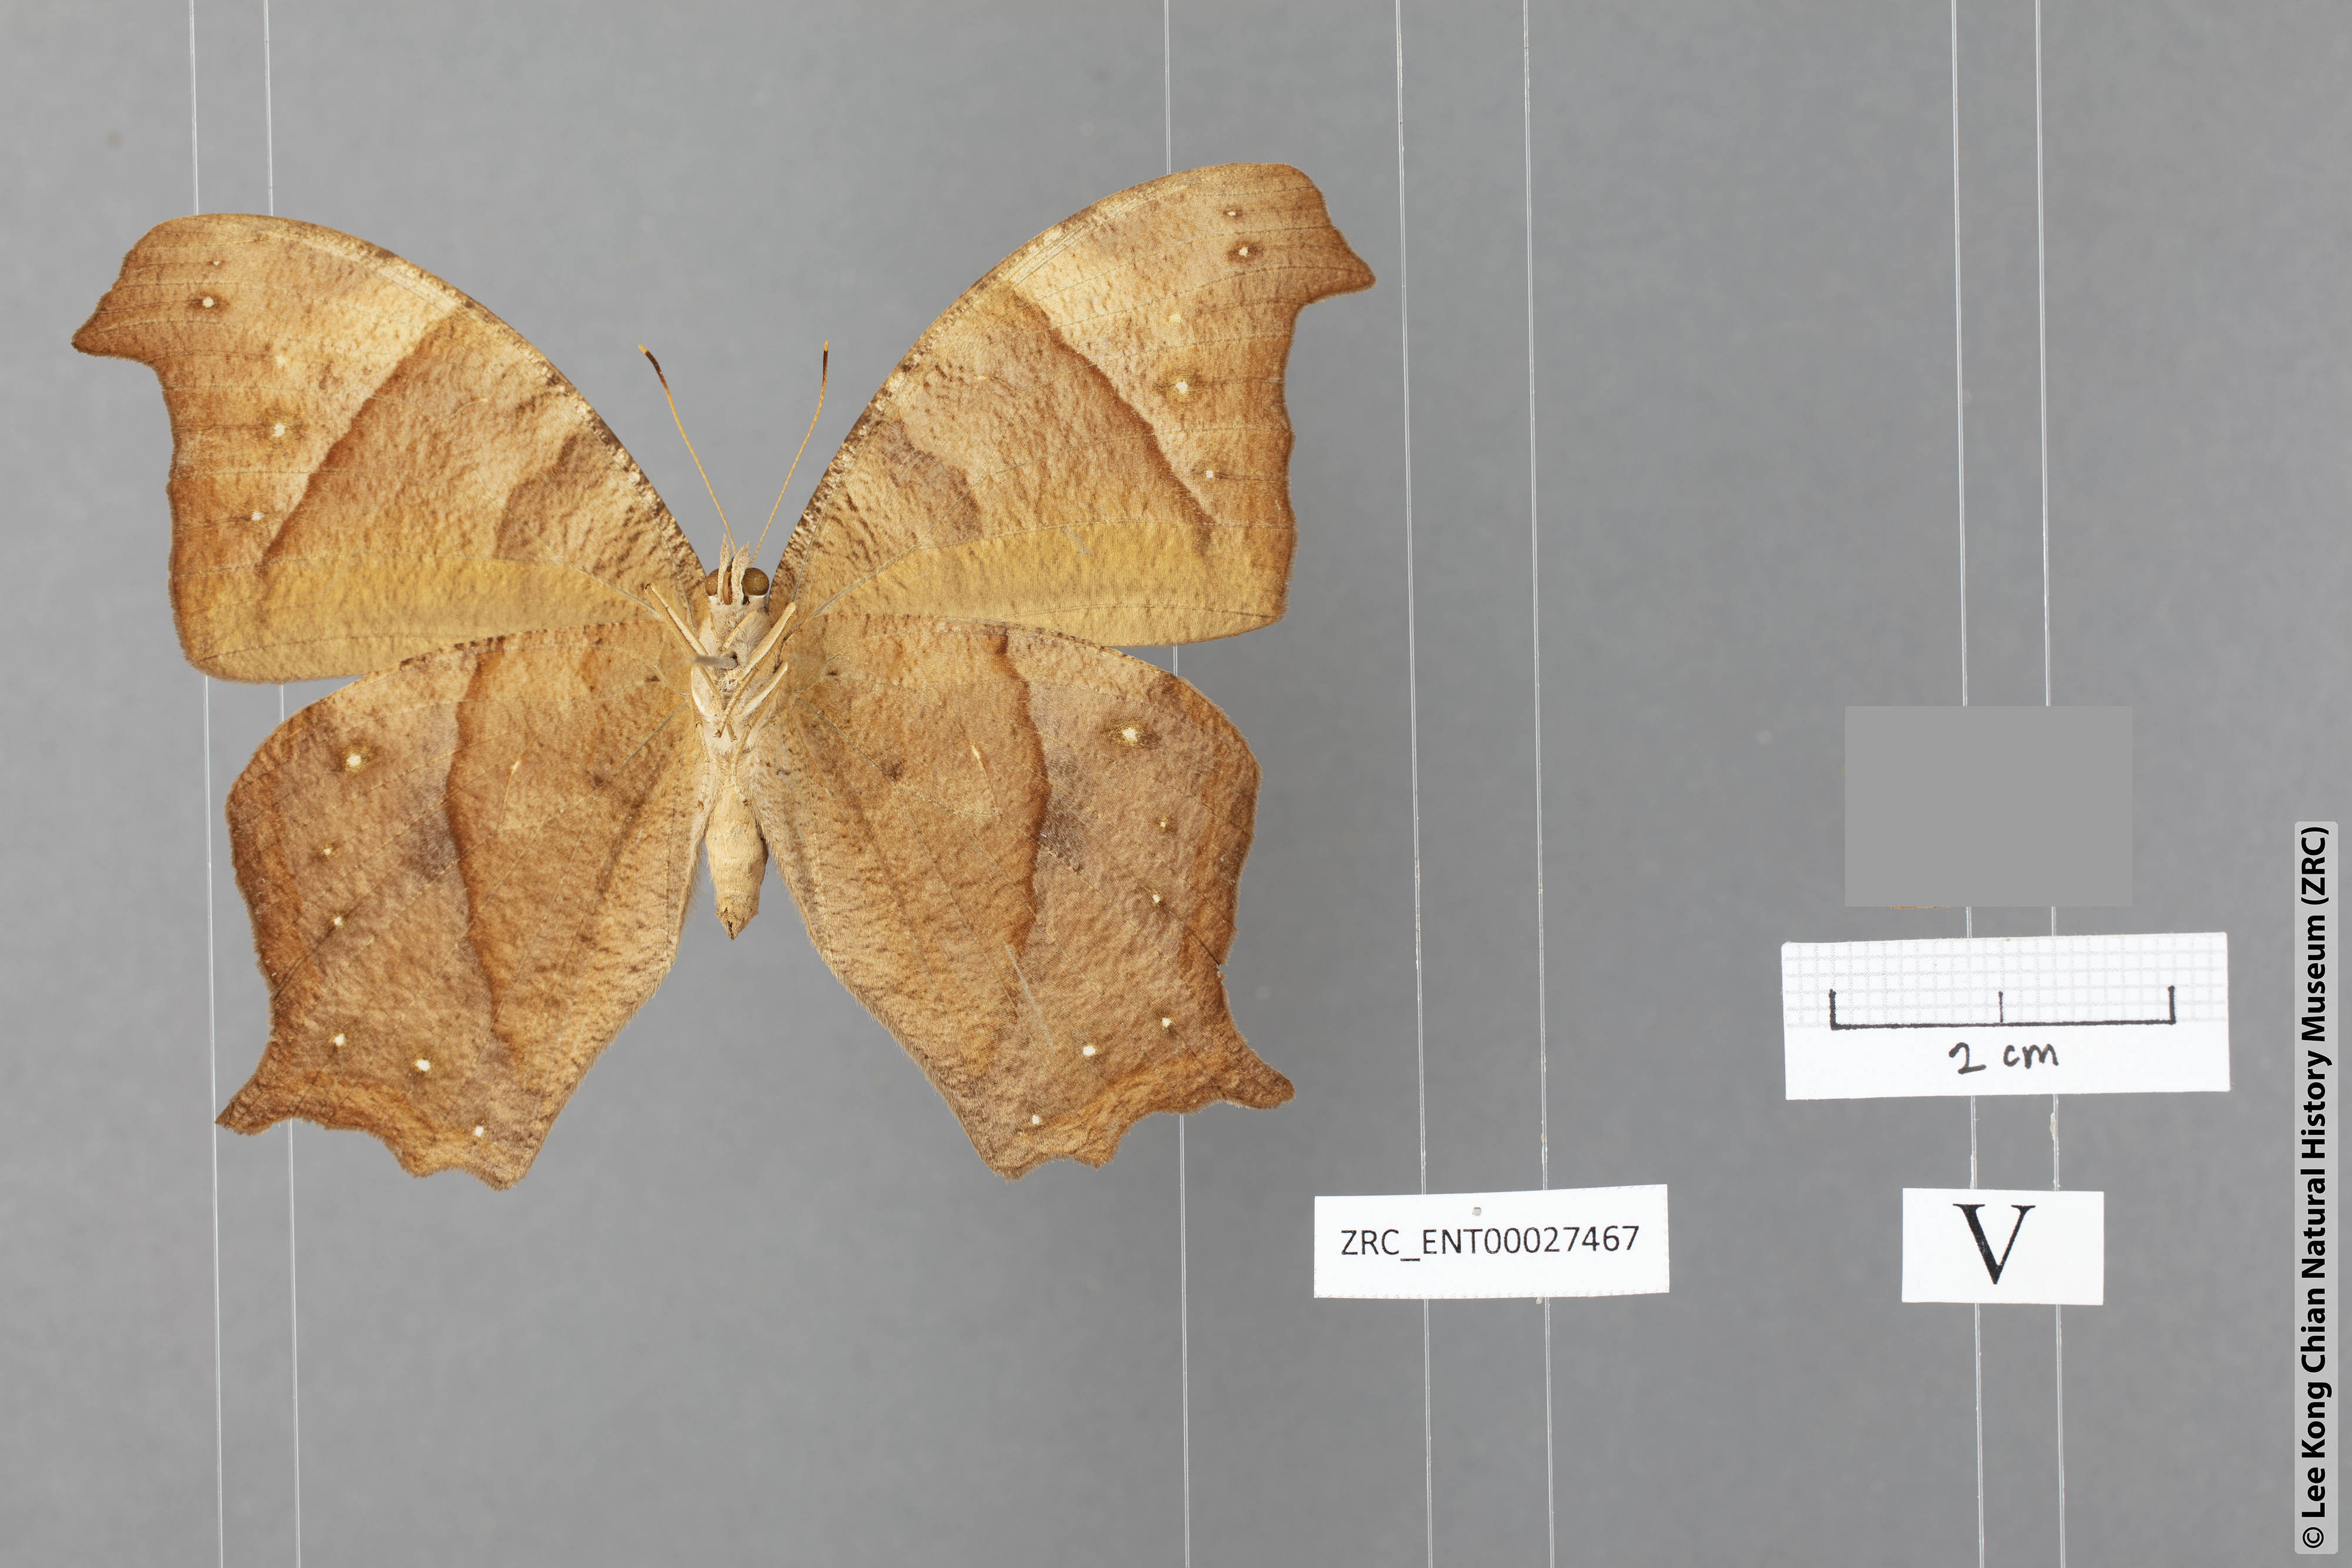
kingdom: Animalia
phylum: Arthropoda
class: Insecta
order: Lepidoptera
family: Nymphalidae
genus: Melanitis
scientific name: Melanitis zitenius
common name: Great evening brown
